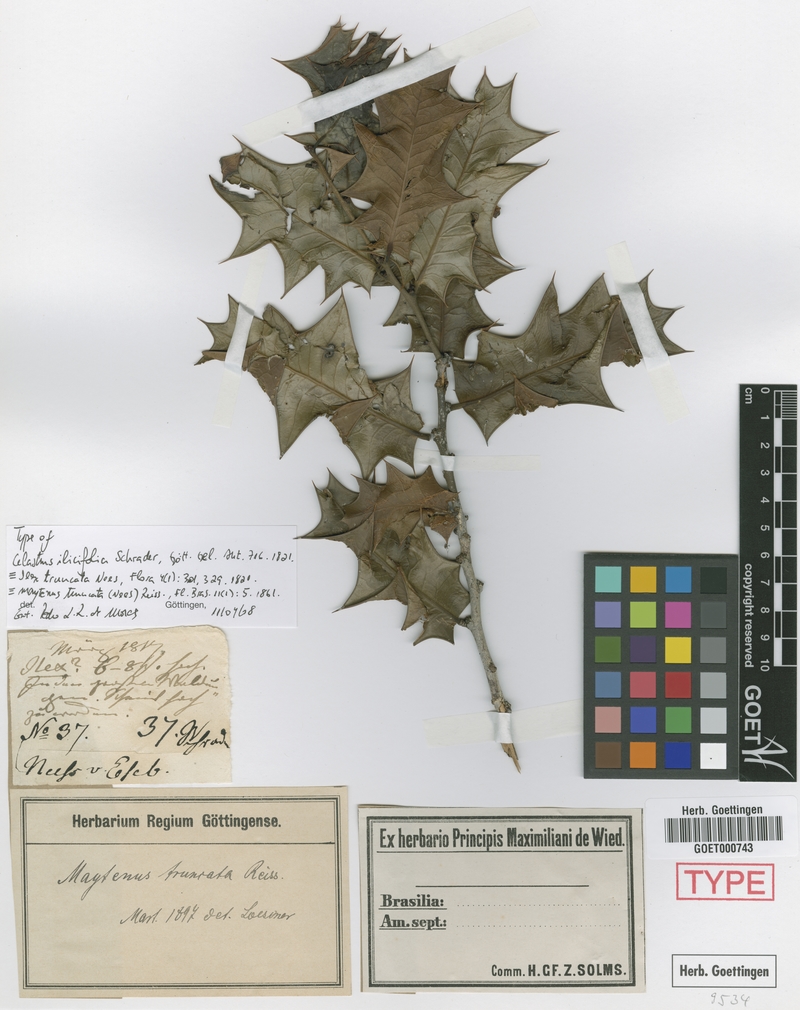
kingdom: Plantae
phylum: Tracheophyta
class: Magnoliopsida
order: Celastrales
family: Celastraceae
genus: Monteverdia
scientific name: Monteverdia truncata
